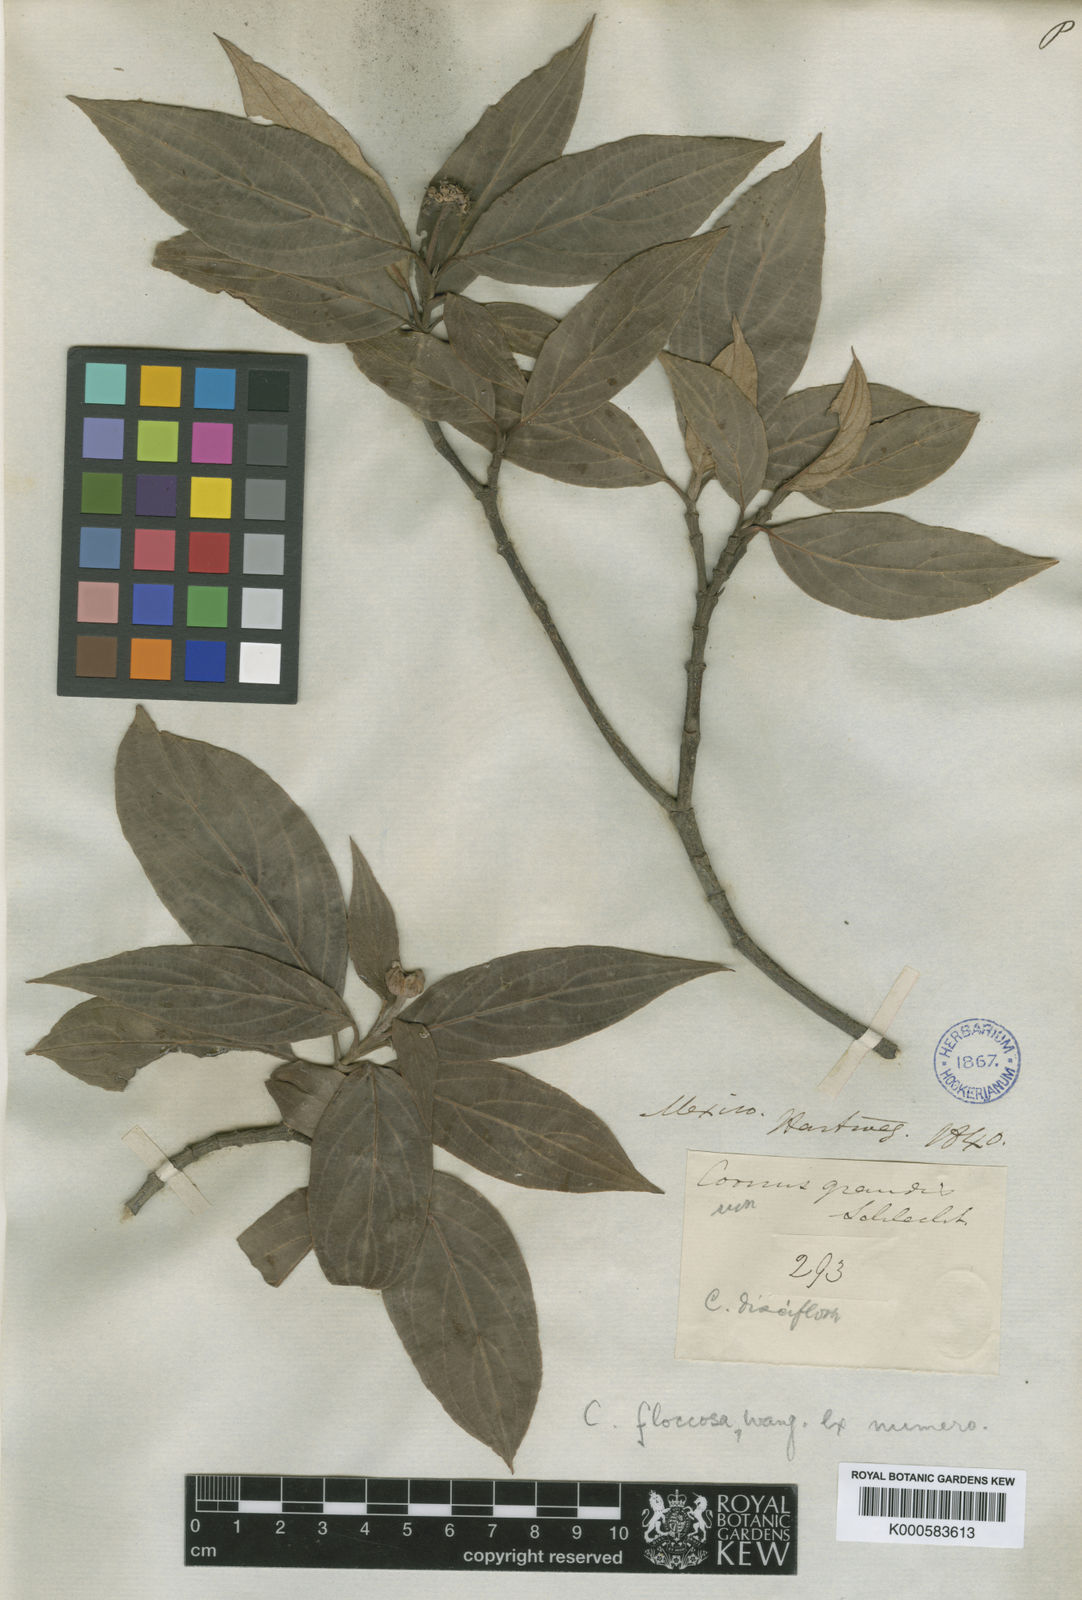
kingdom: Plantae
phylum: Tracheophyta
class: Magnoliopsida
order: Cornales
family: Cornaceae
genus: Cornus
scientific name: Cornus disciflora
